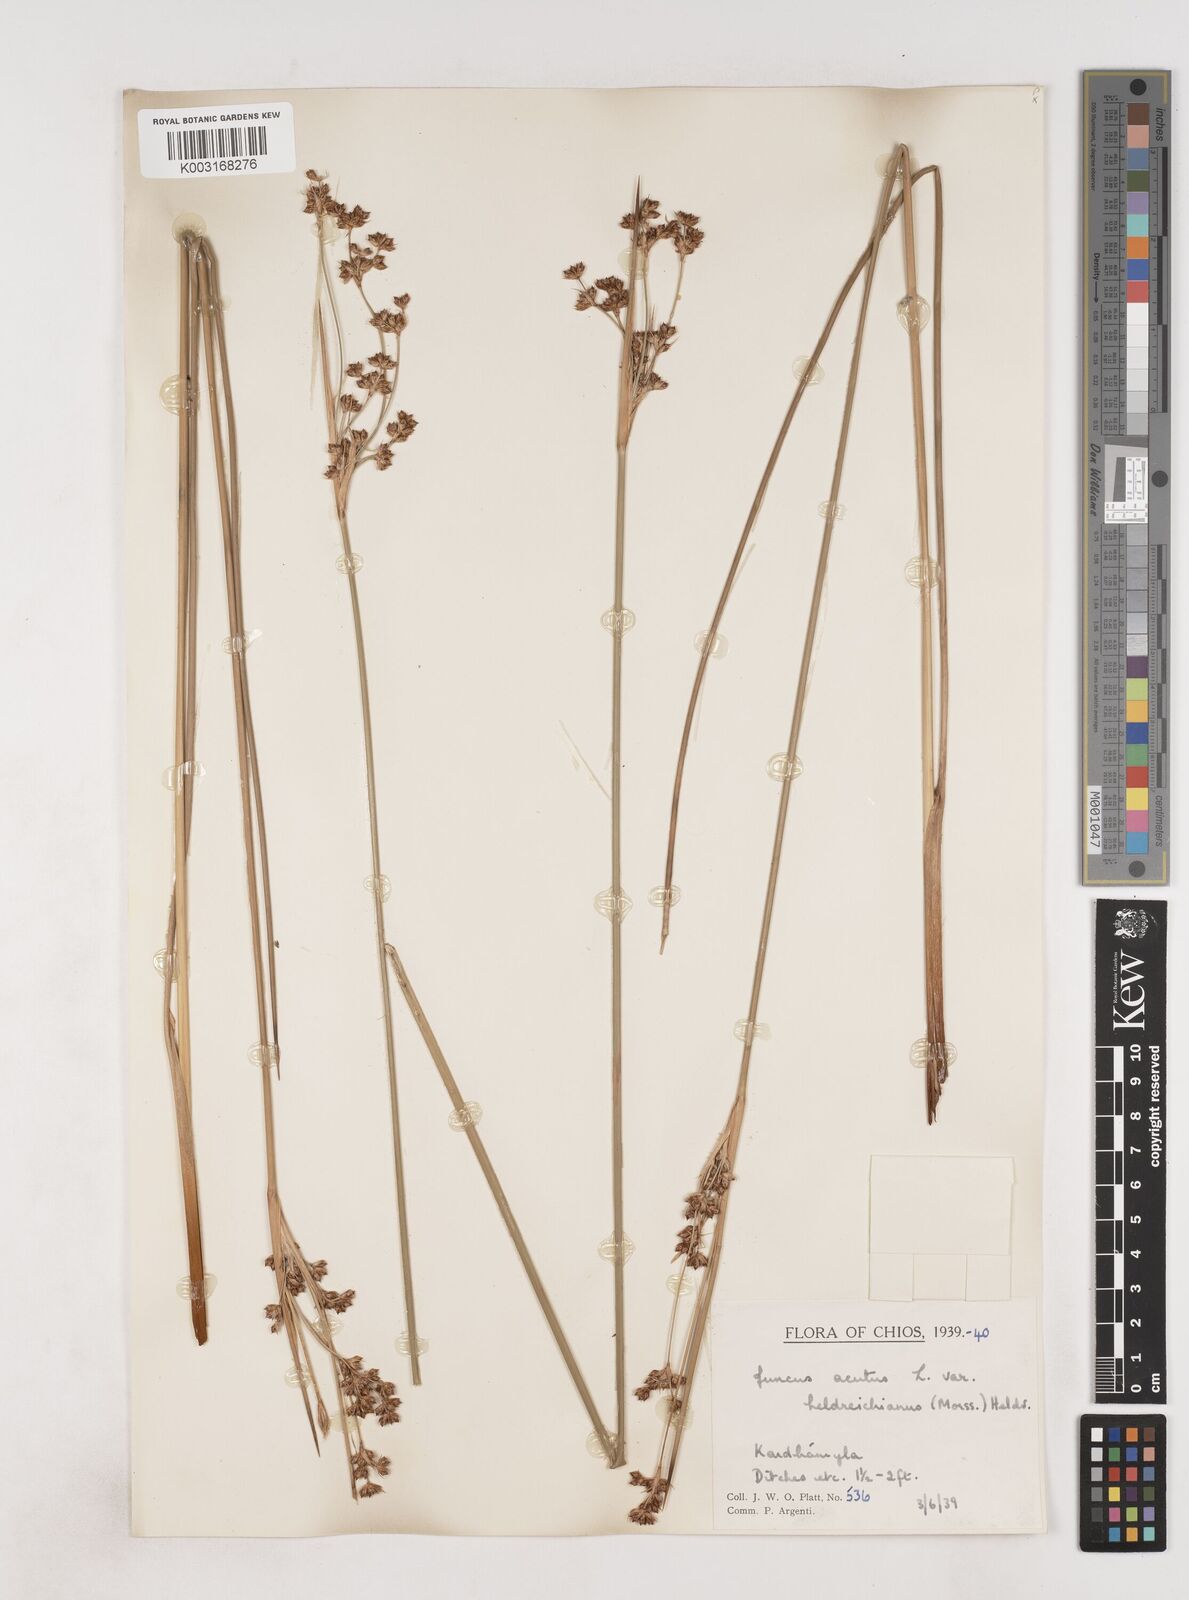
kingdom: Plantae
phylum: Tracheophyta
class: Liliopsida
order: Poales
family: Juncaceae
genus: Juncus
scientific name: Juncus arcticus
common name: Arctic rush
